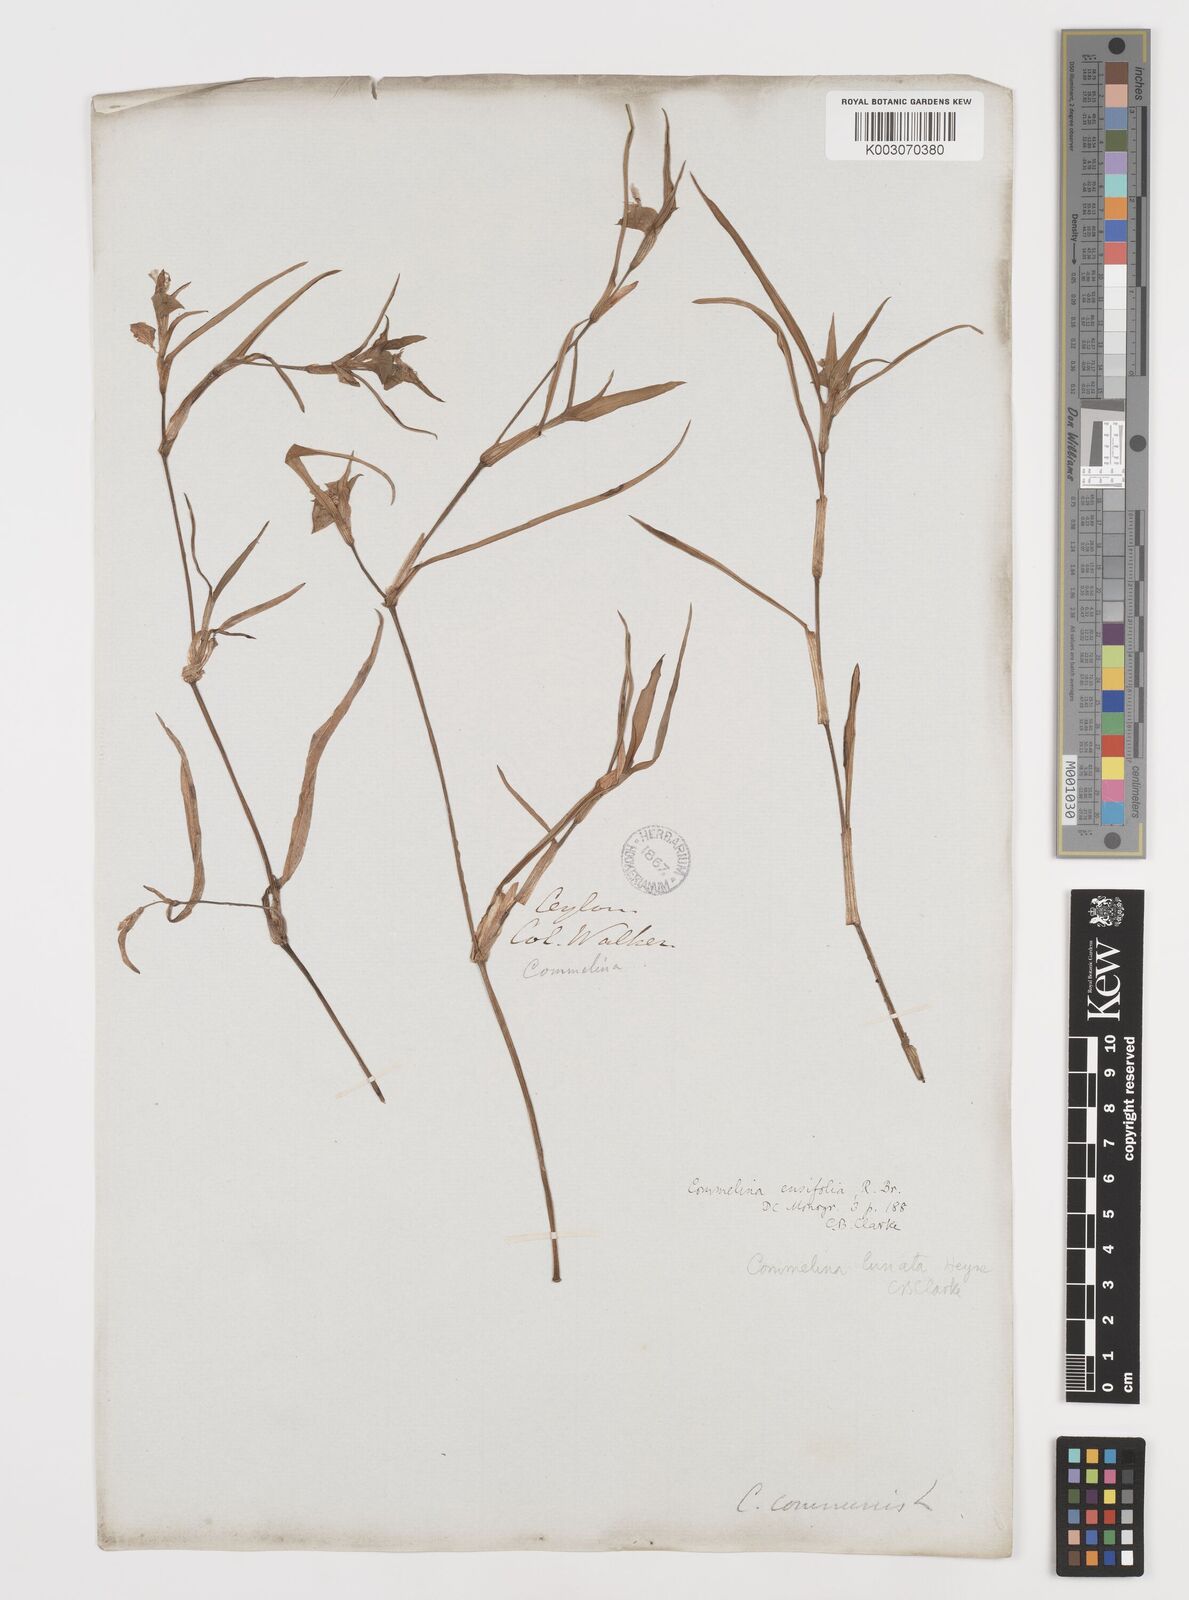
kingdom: Plantae
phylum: Tracheophyta
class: Liliopsida
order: Commelinales
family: Commelinaceae
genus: Commelina
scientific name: Commelina ensifolia
